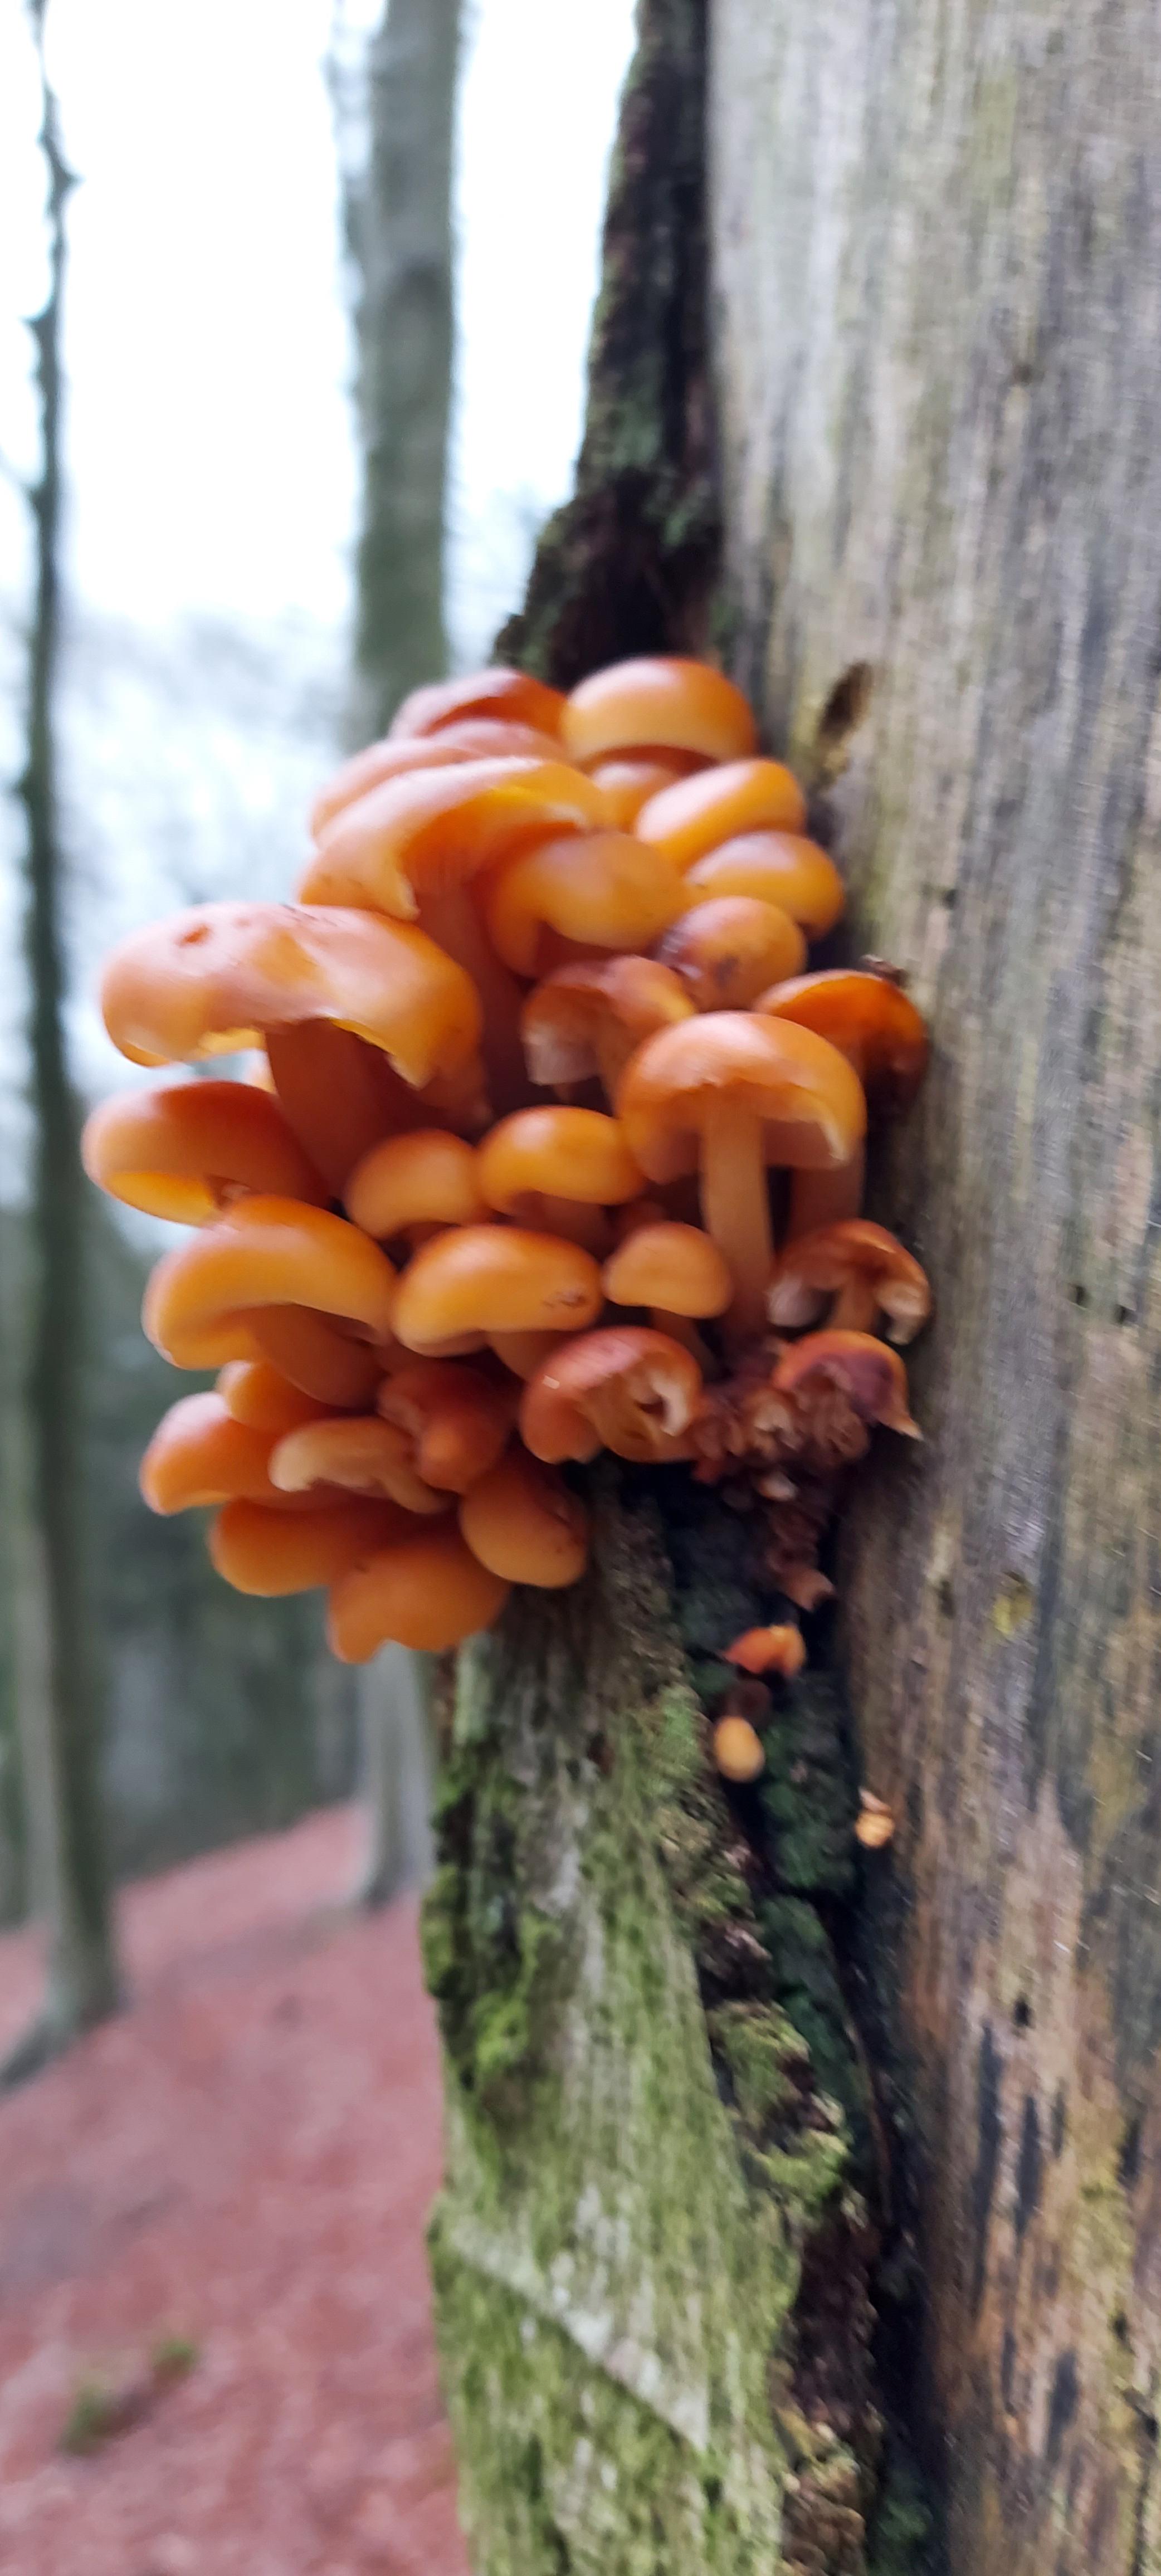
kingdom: Fungi
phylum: Basidiomycota
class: Agaricomycetes
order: Agaricales
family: Physalacriaceae
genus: Flammulina
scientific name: Flammulina velutipes
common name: gul fløjlsfod
